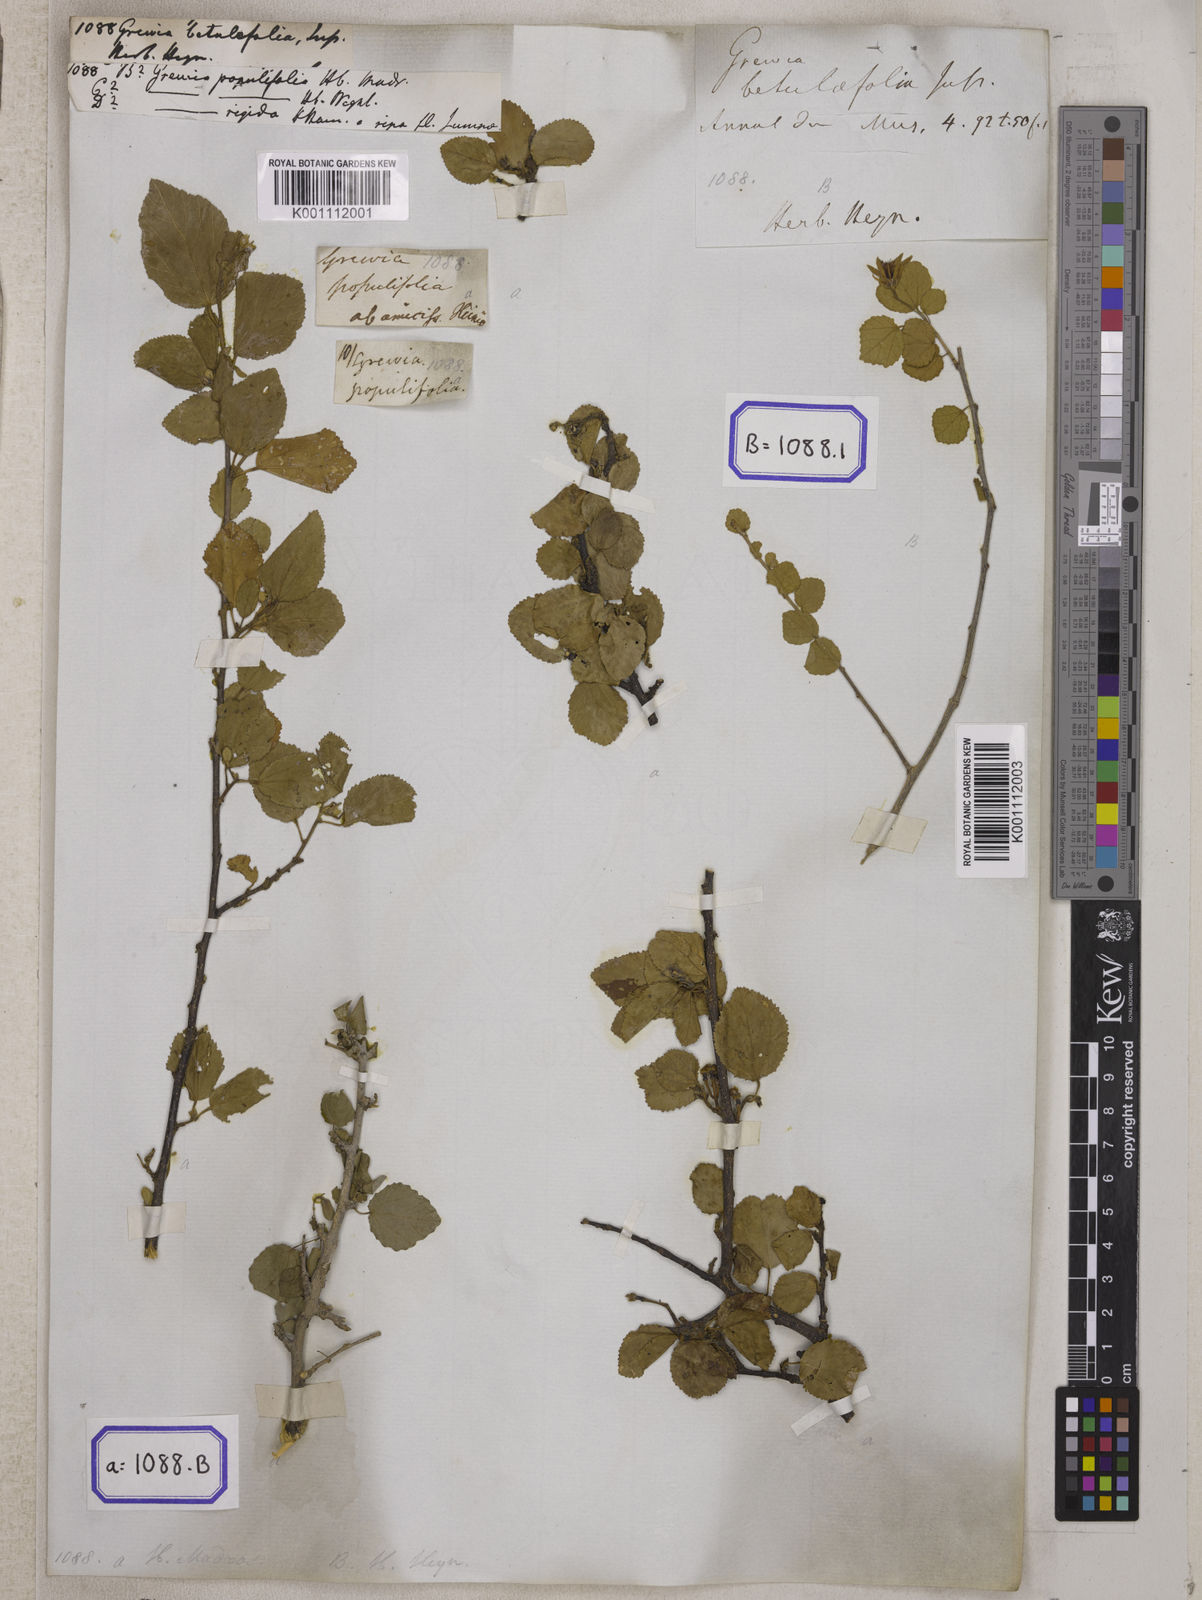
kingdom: Plantae
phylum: Tracheophyta
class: Magnoliopsida
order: Malvales
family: Malvaceae
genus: Grewia
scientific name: Grewia tenax
